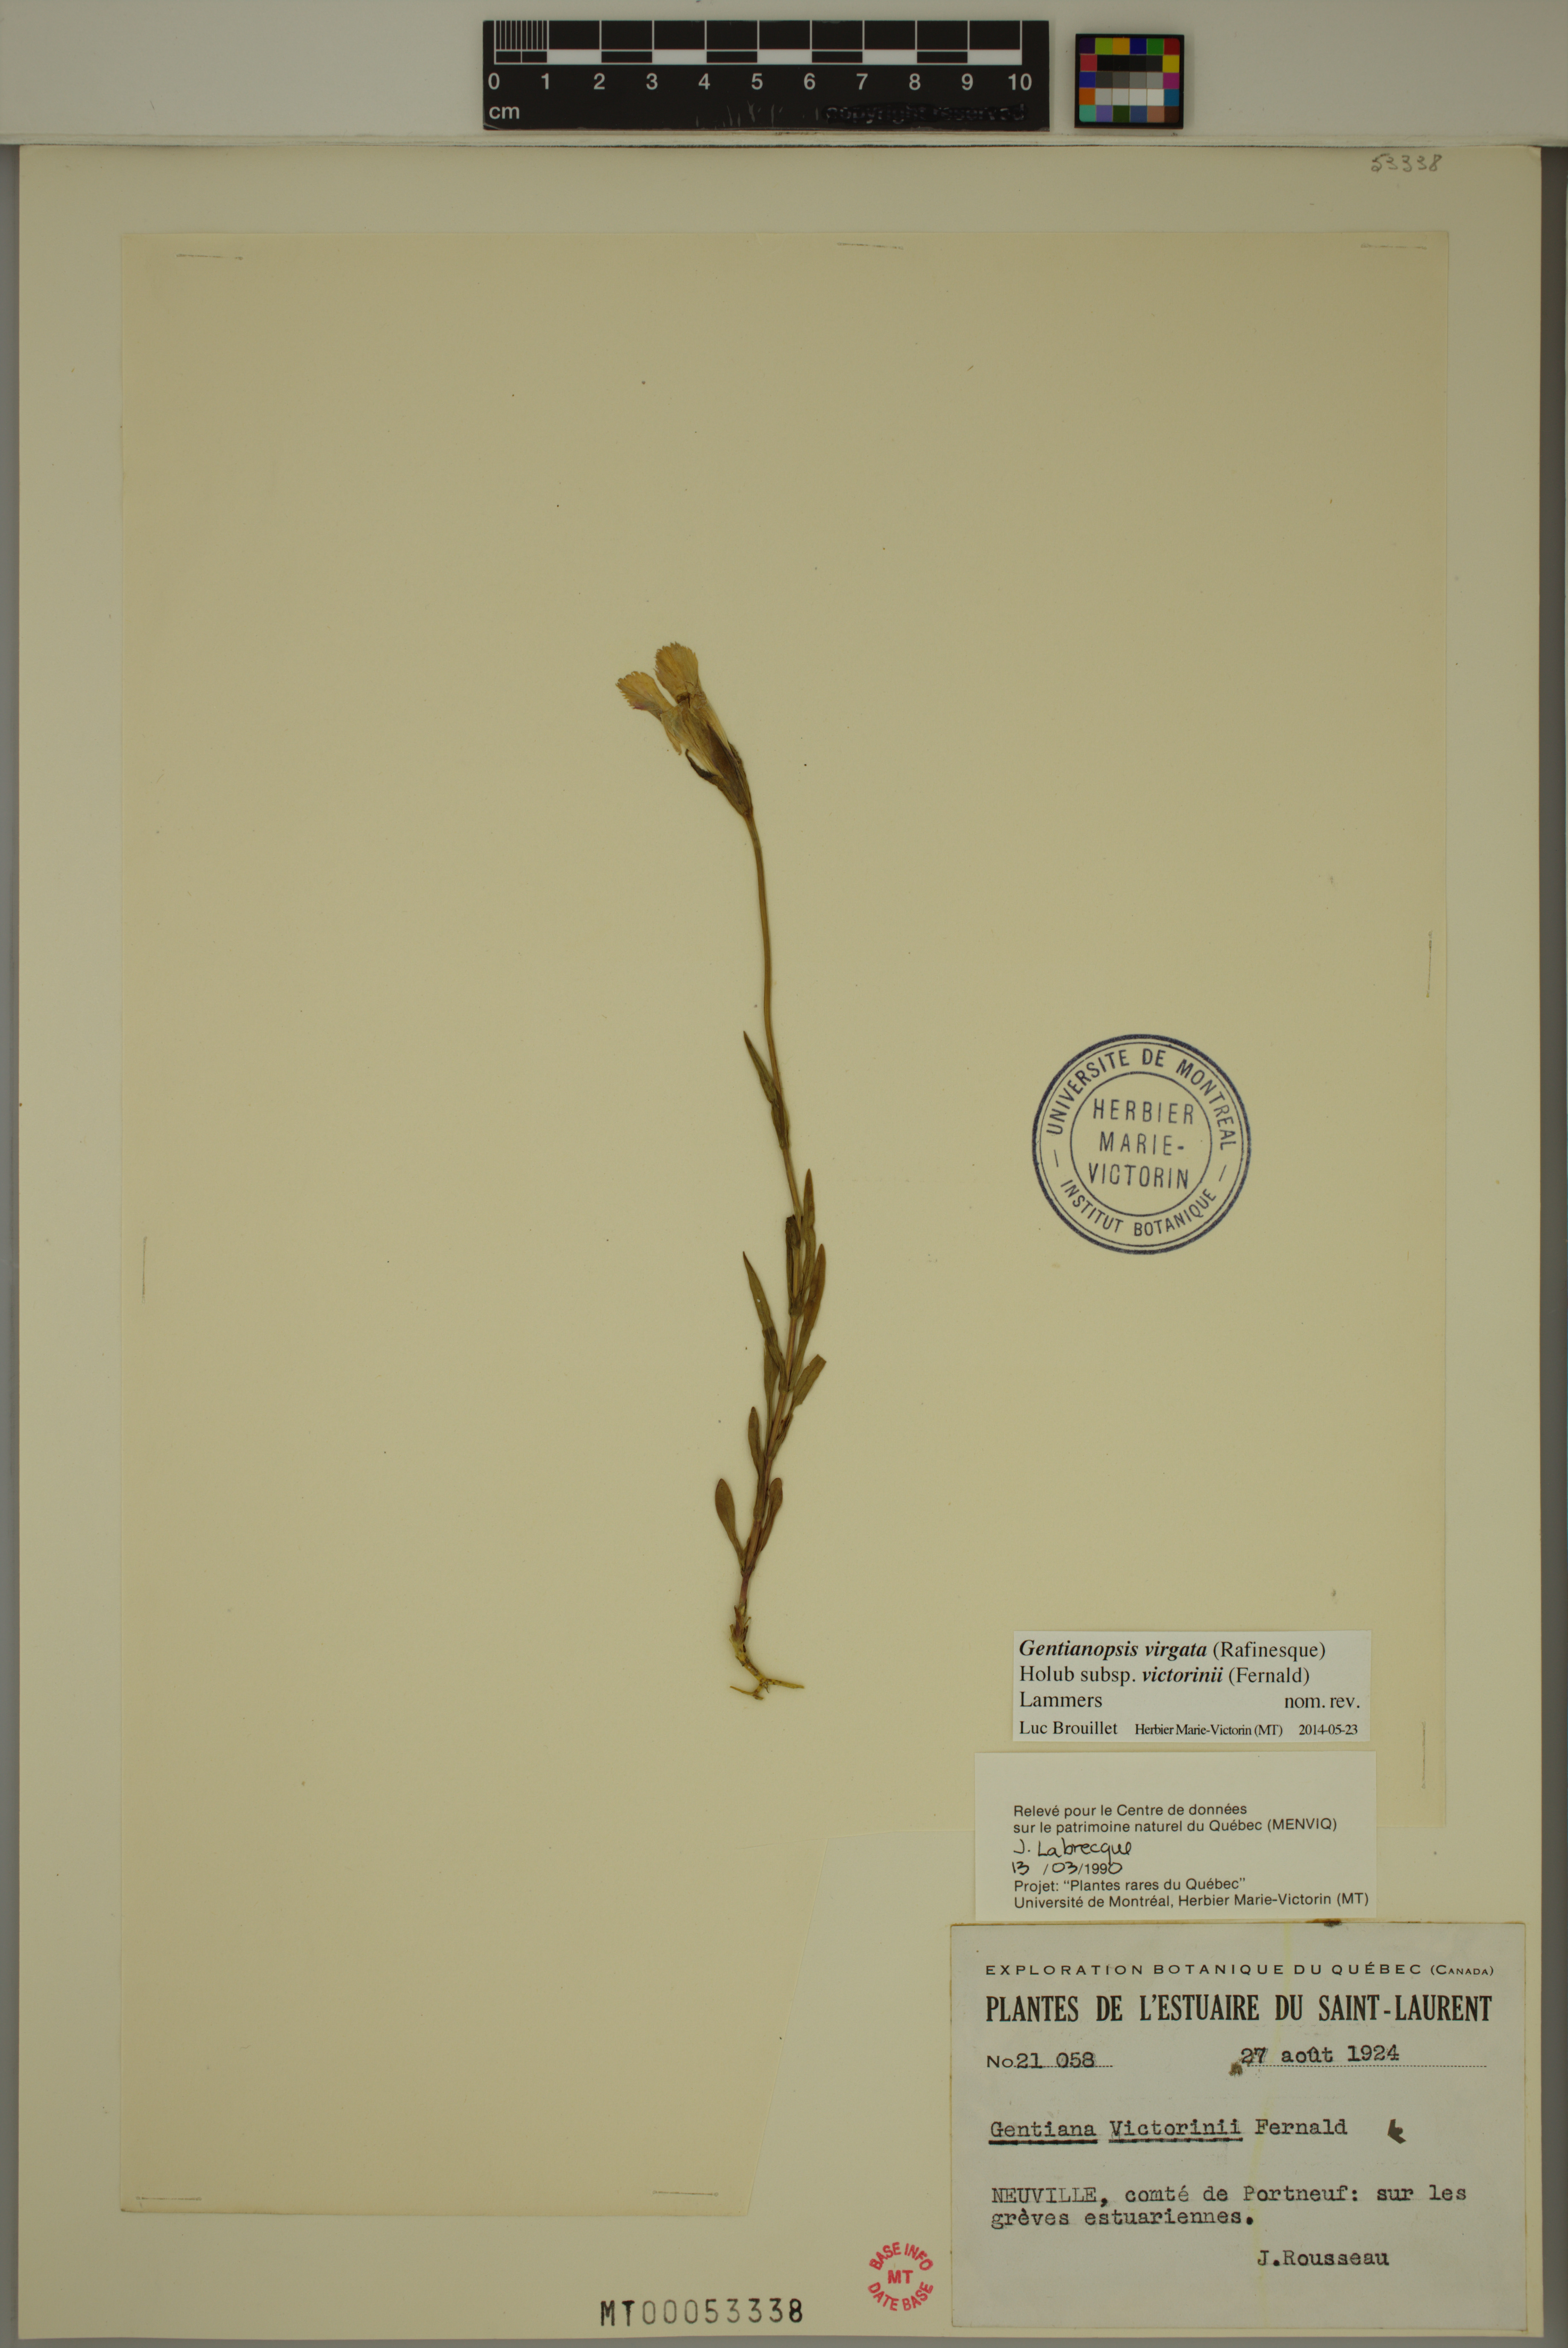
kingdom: Plantae
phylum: Tracheophyta
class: Magnoliopsida
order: Gentianales
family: Gentianaceae
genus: Gentianopsis
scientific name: Gentianopsis victorinii
